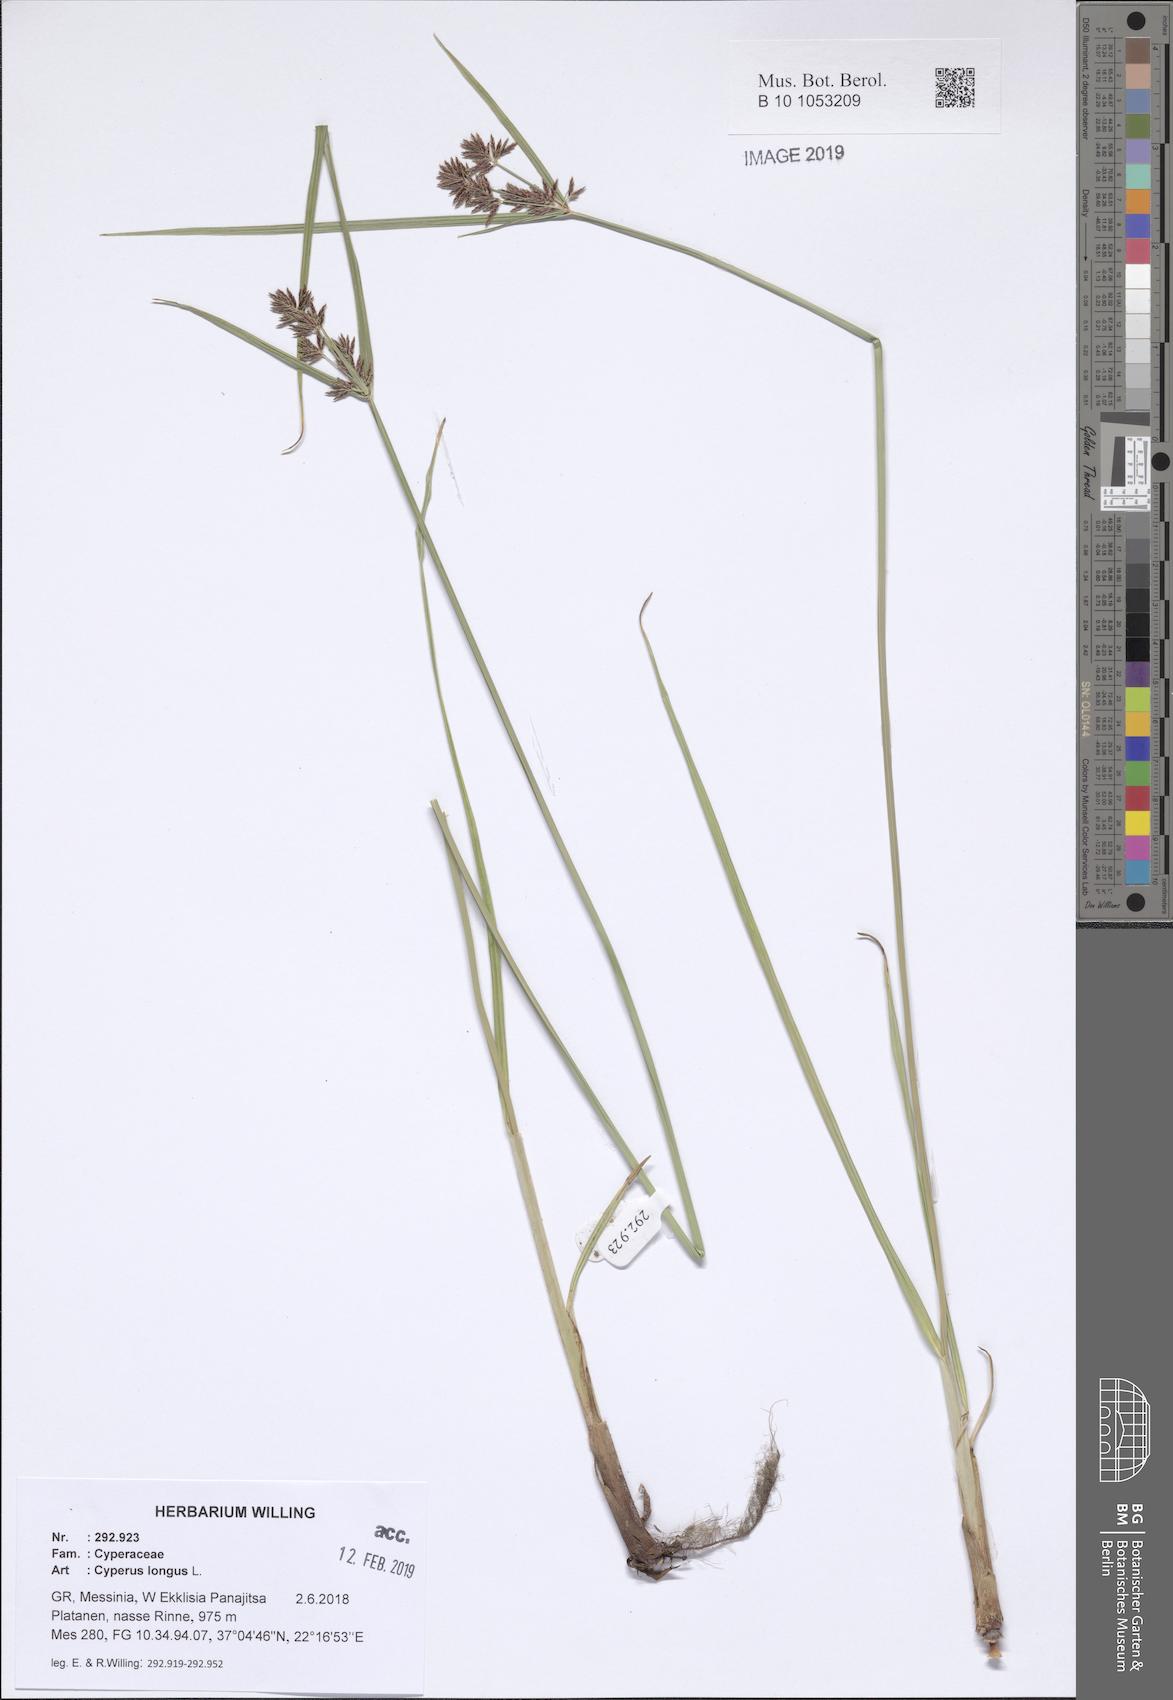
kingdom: Plantae
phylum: Tracheophyta
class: Liliopsida
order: Poales
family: Cyperaceae
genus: Cyperus
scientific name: Cyperus longus
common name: Galingale
